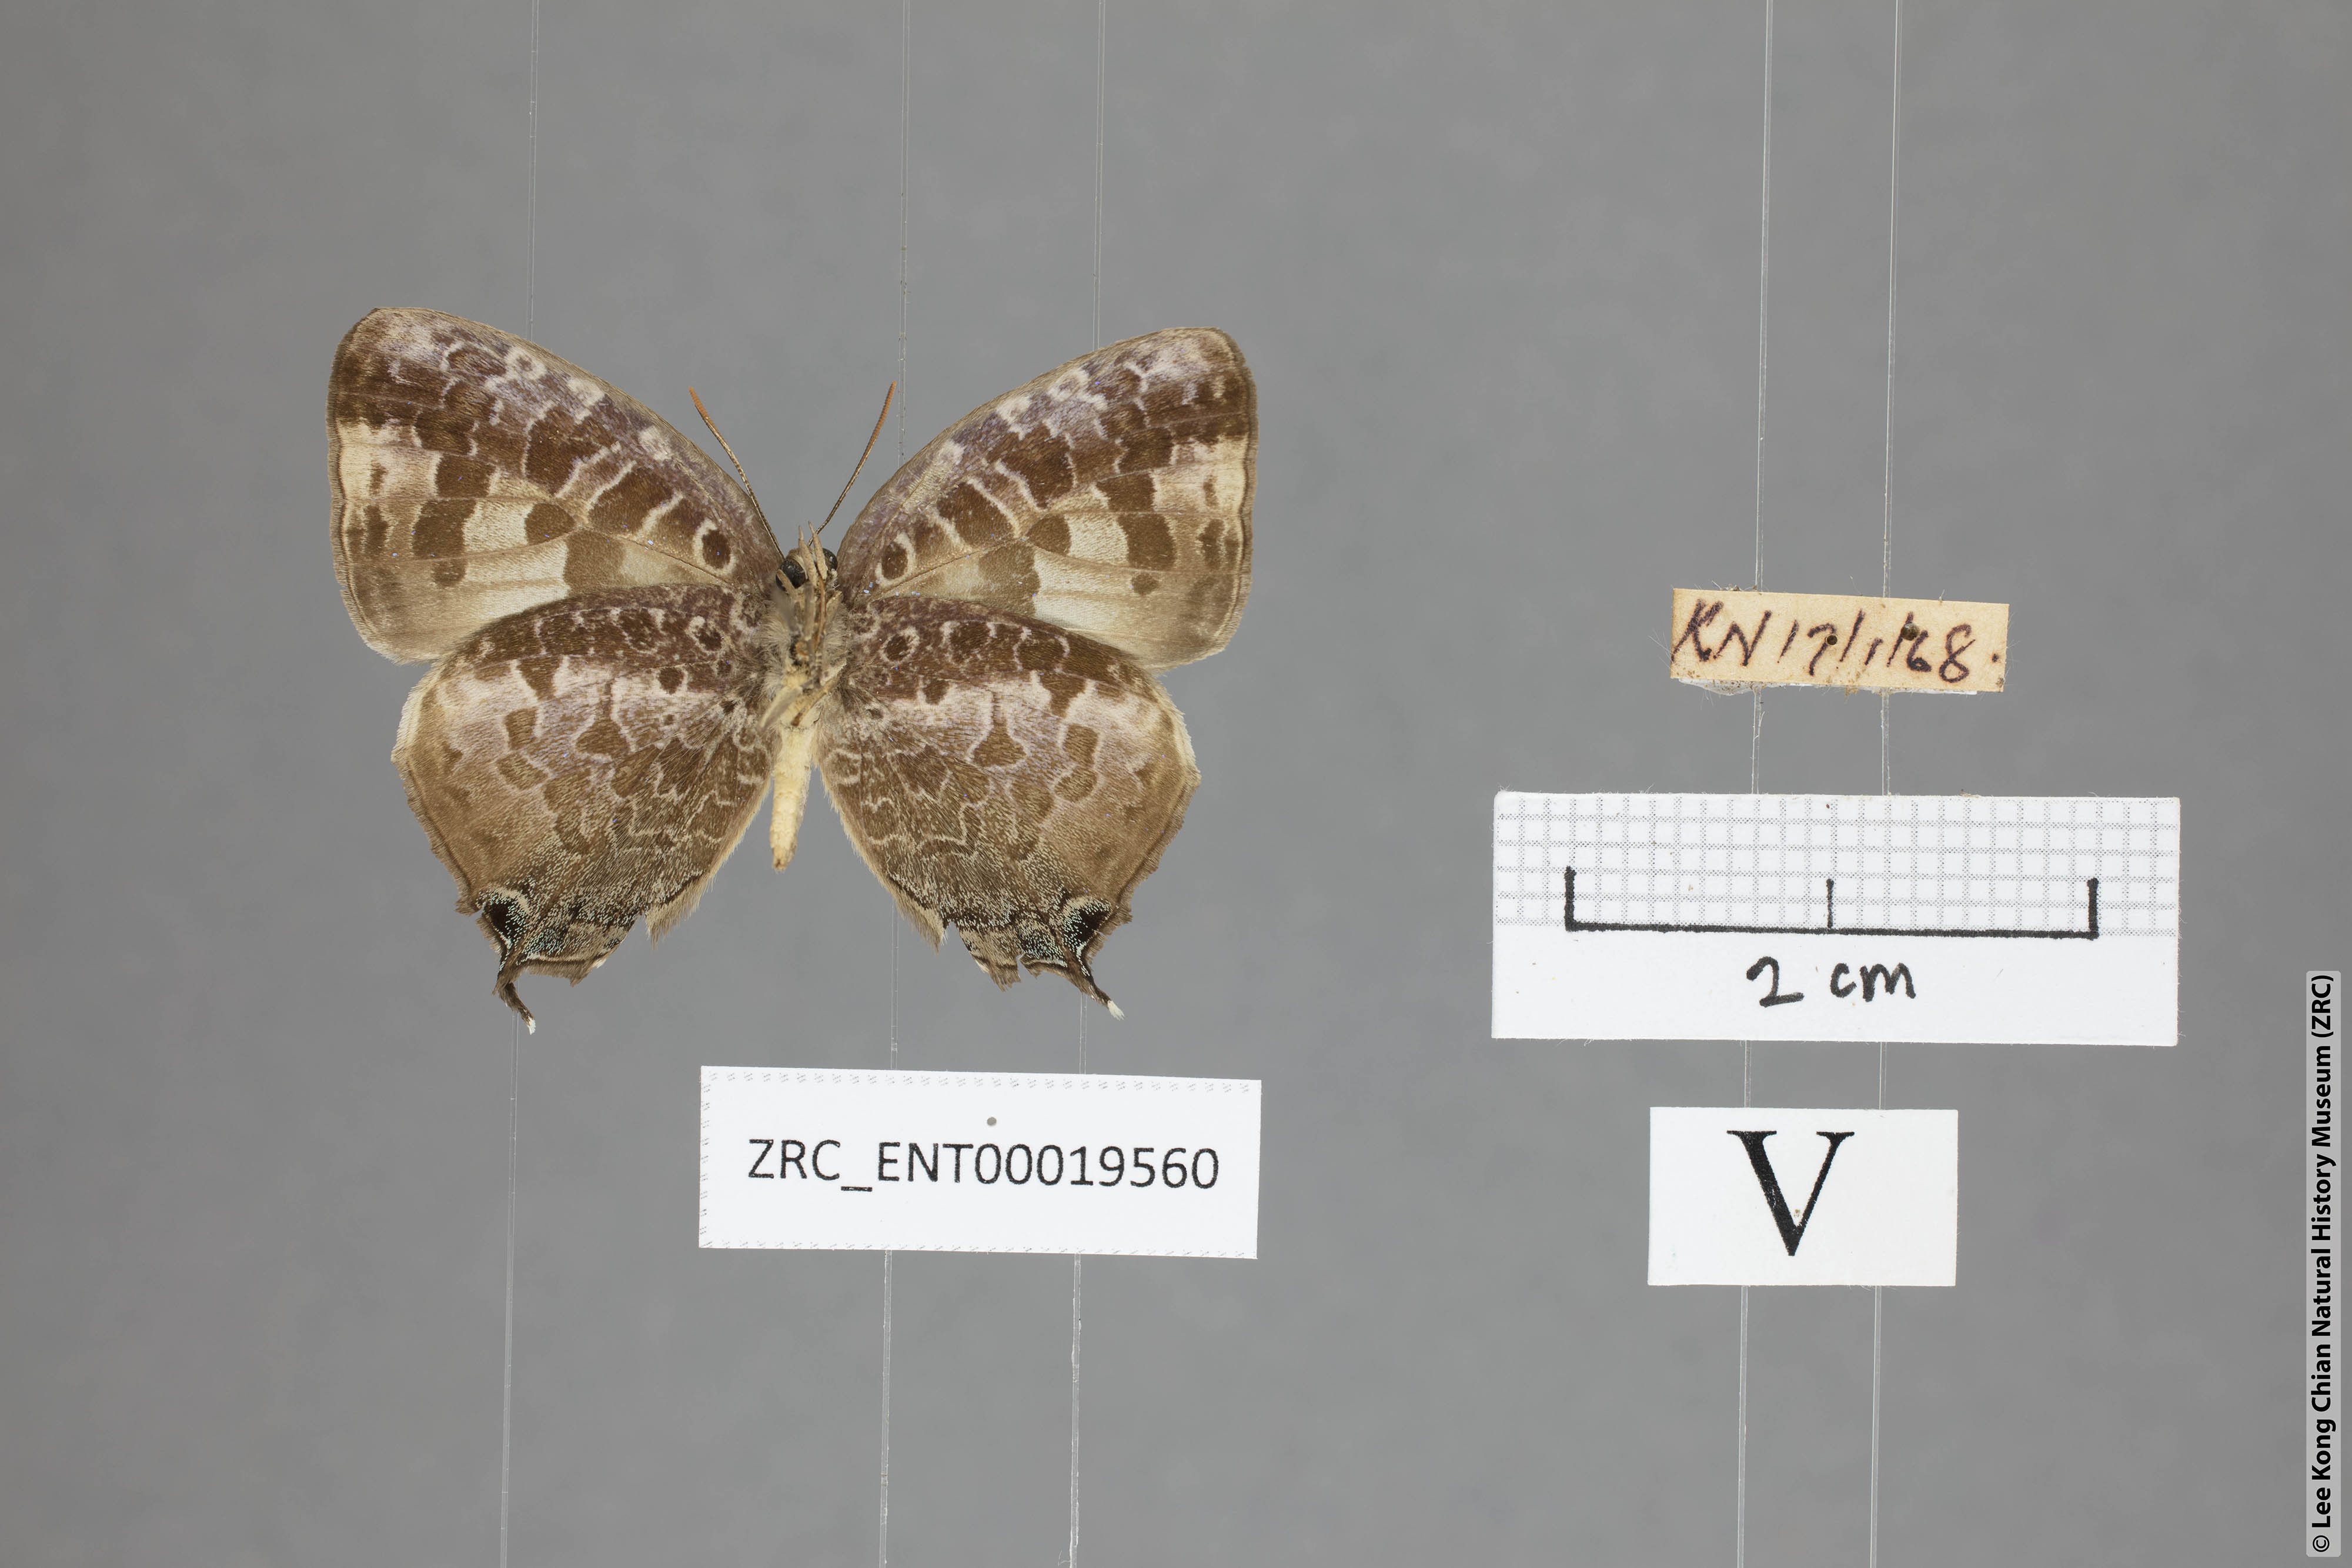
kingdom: Animalia
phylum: Arthropoda
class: Insecta
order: Lepidoptera
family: Lycaenidae
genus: Arhopala
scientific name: Arhopala ijauensis
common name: White-banded oakblue
